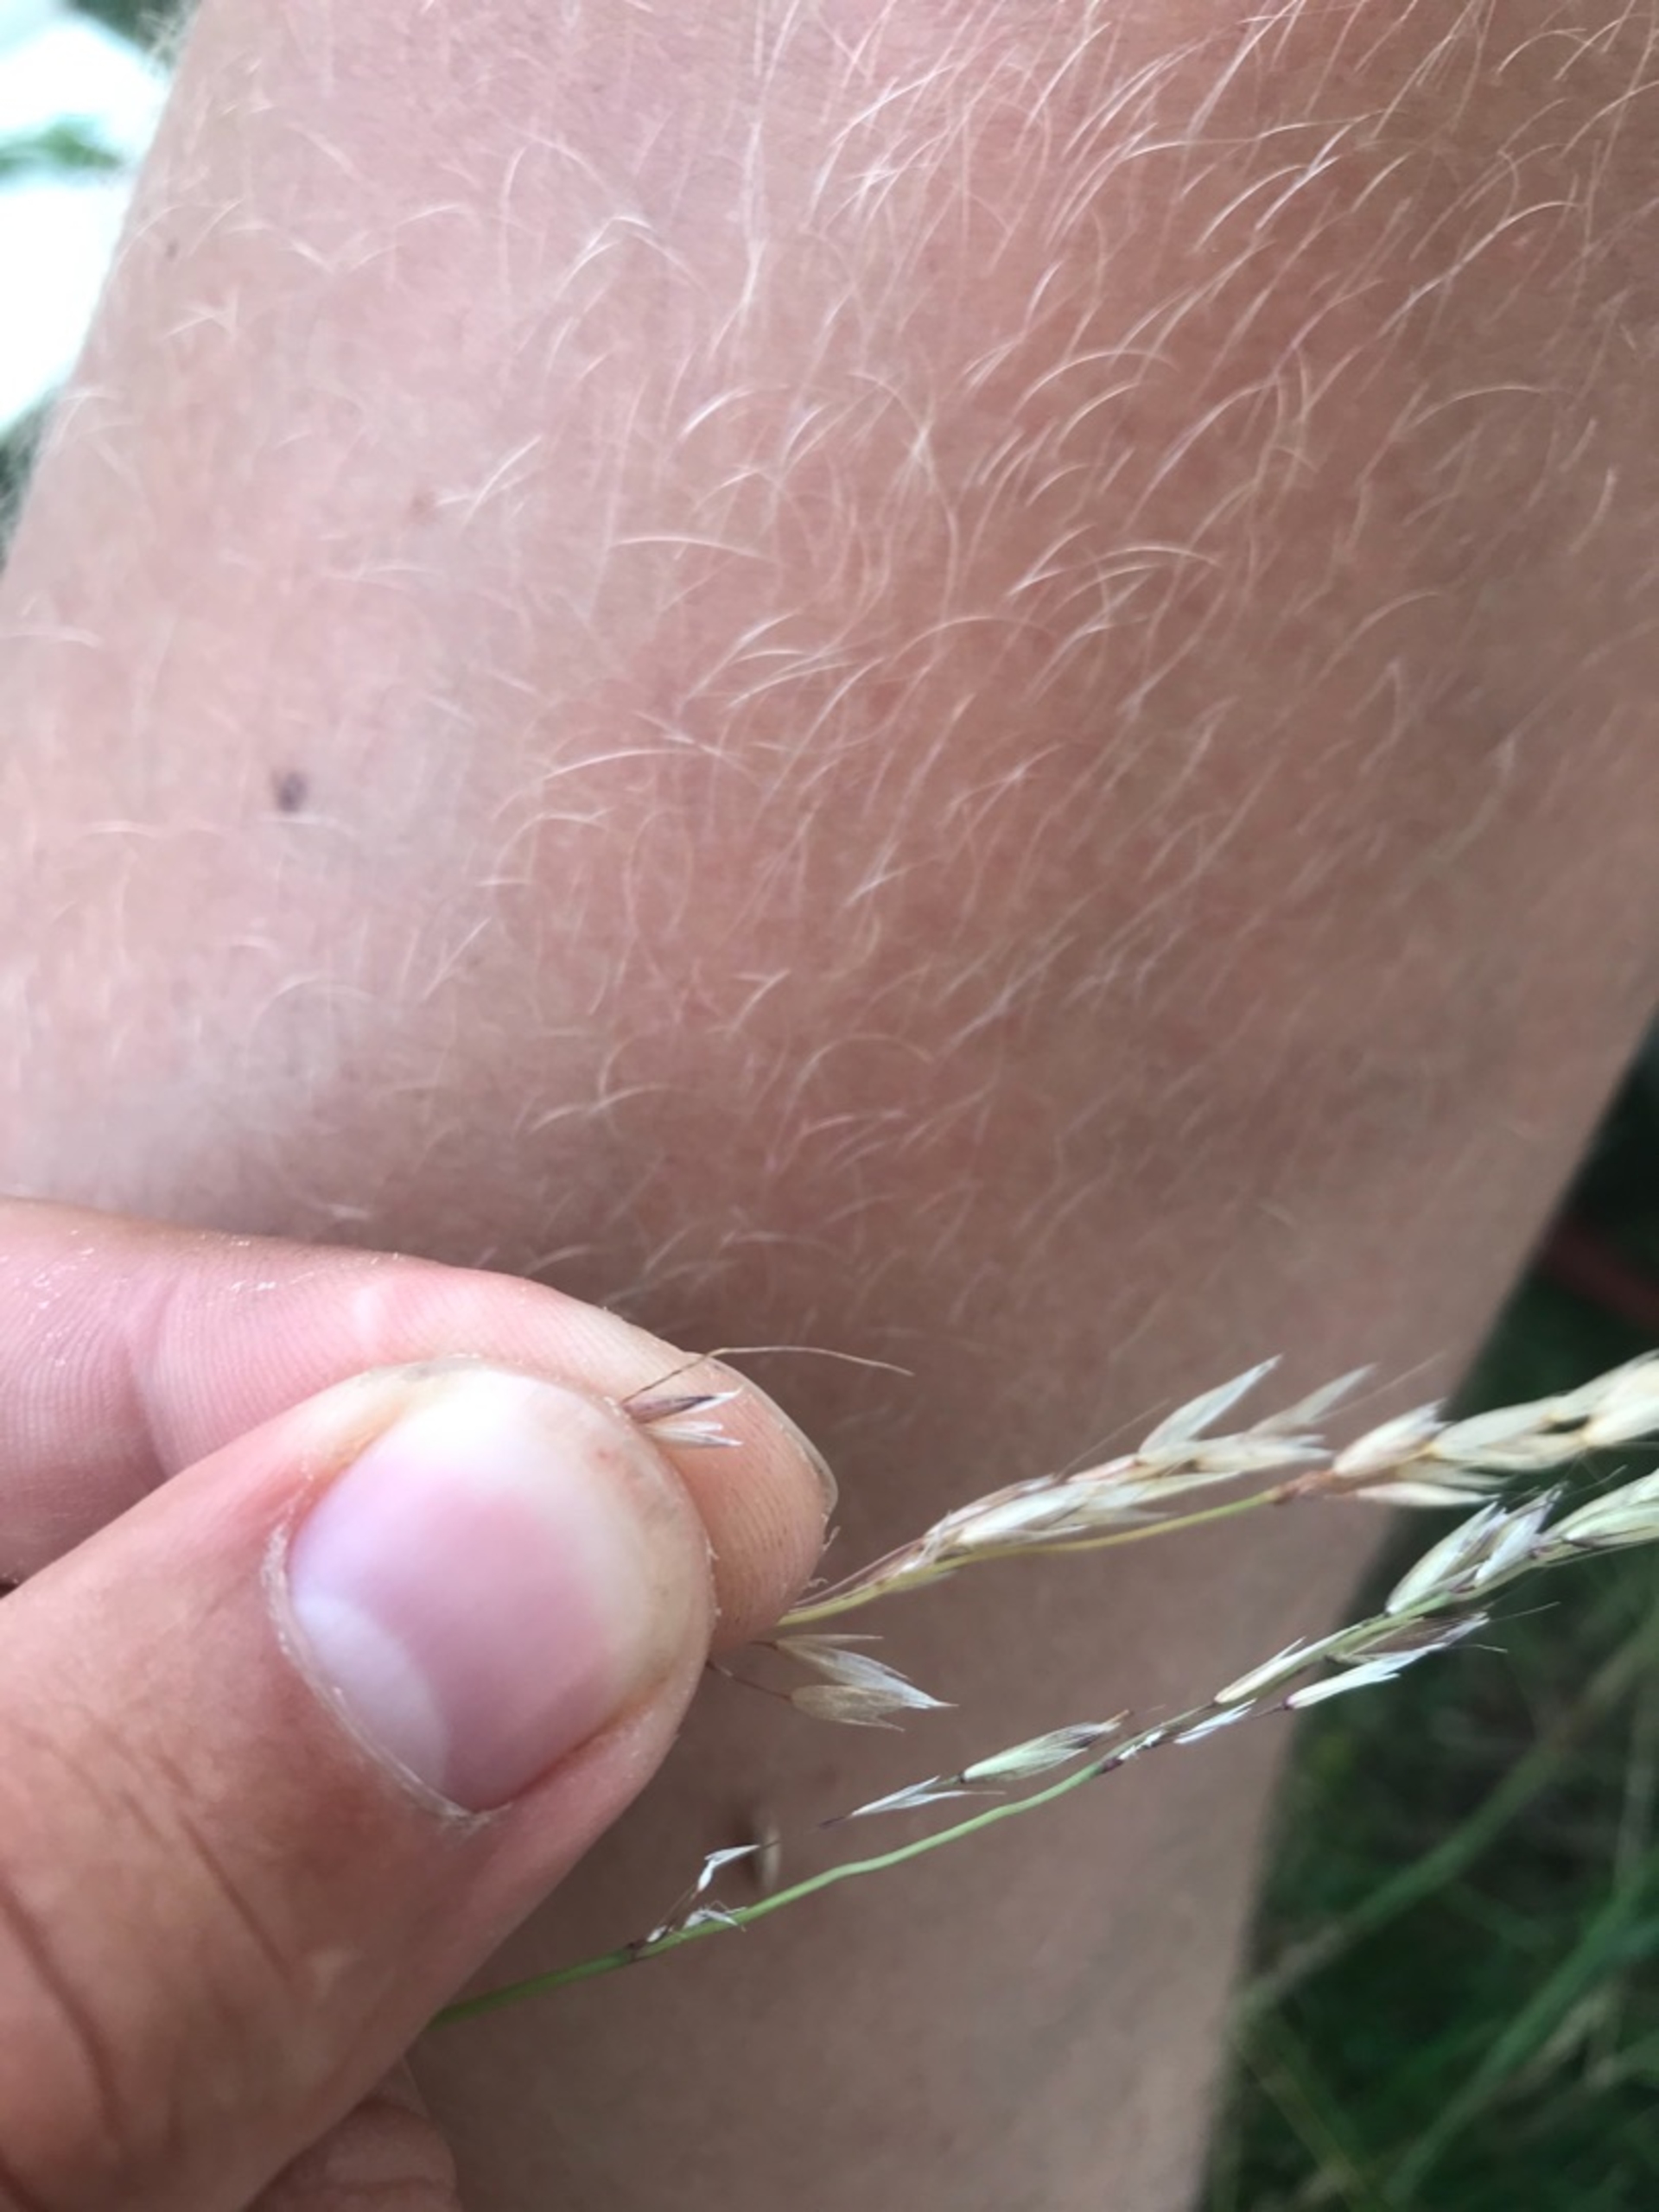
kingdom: Plantae
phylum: Tracheophyta
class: Liliopsida
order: Poales
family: Poaceae
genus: Arrhenatherum
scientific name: Arrhenatherum elatius
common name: Draphavre
